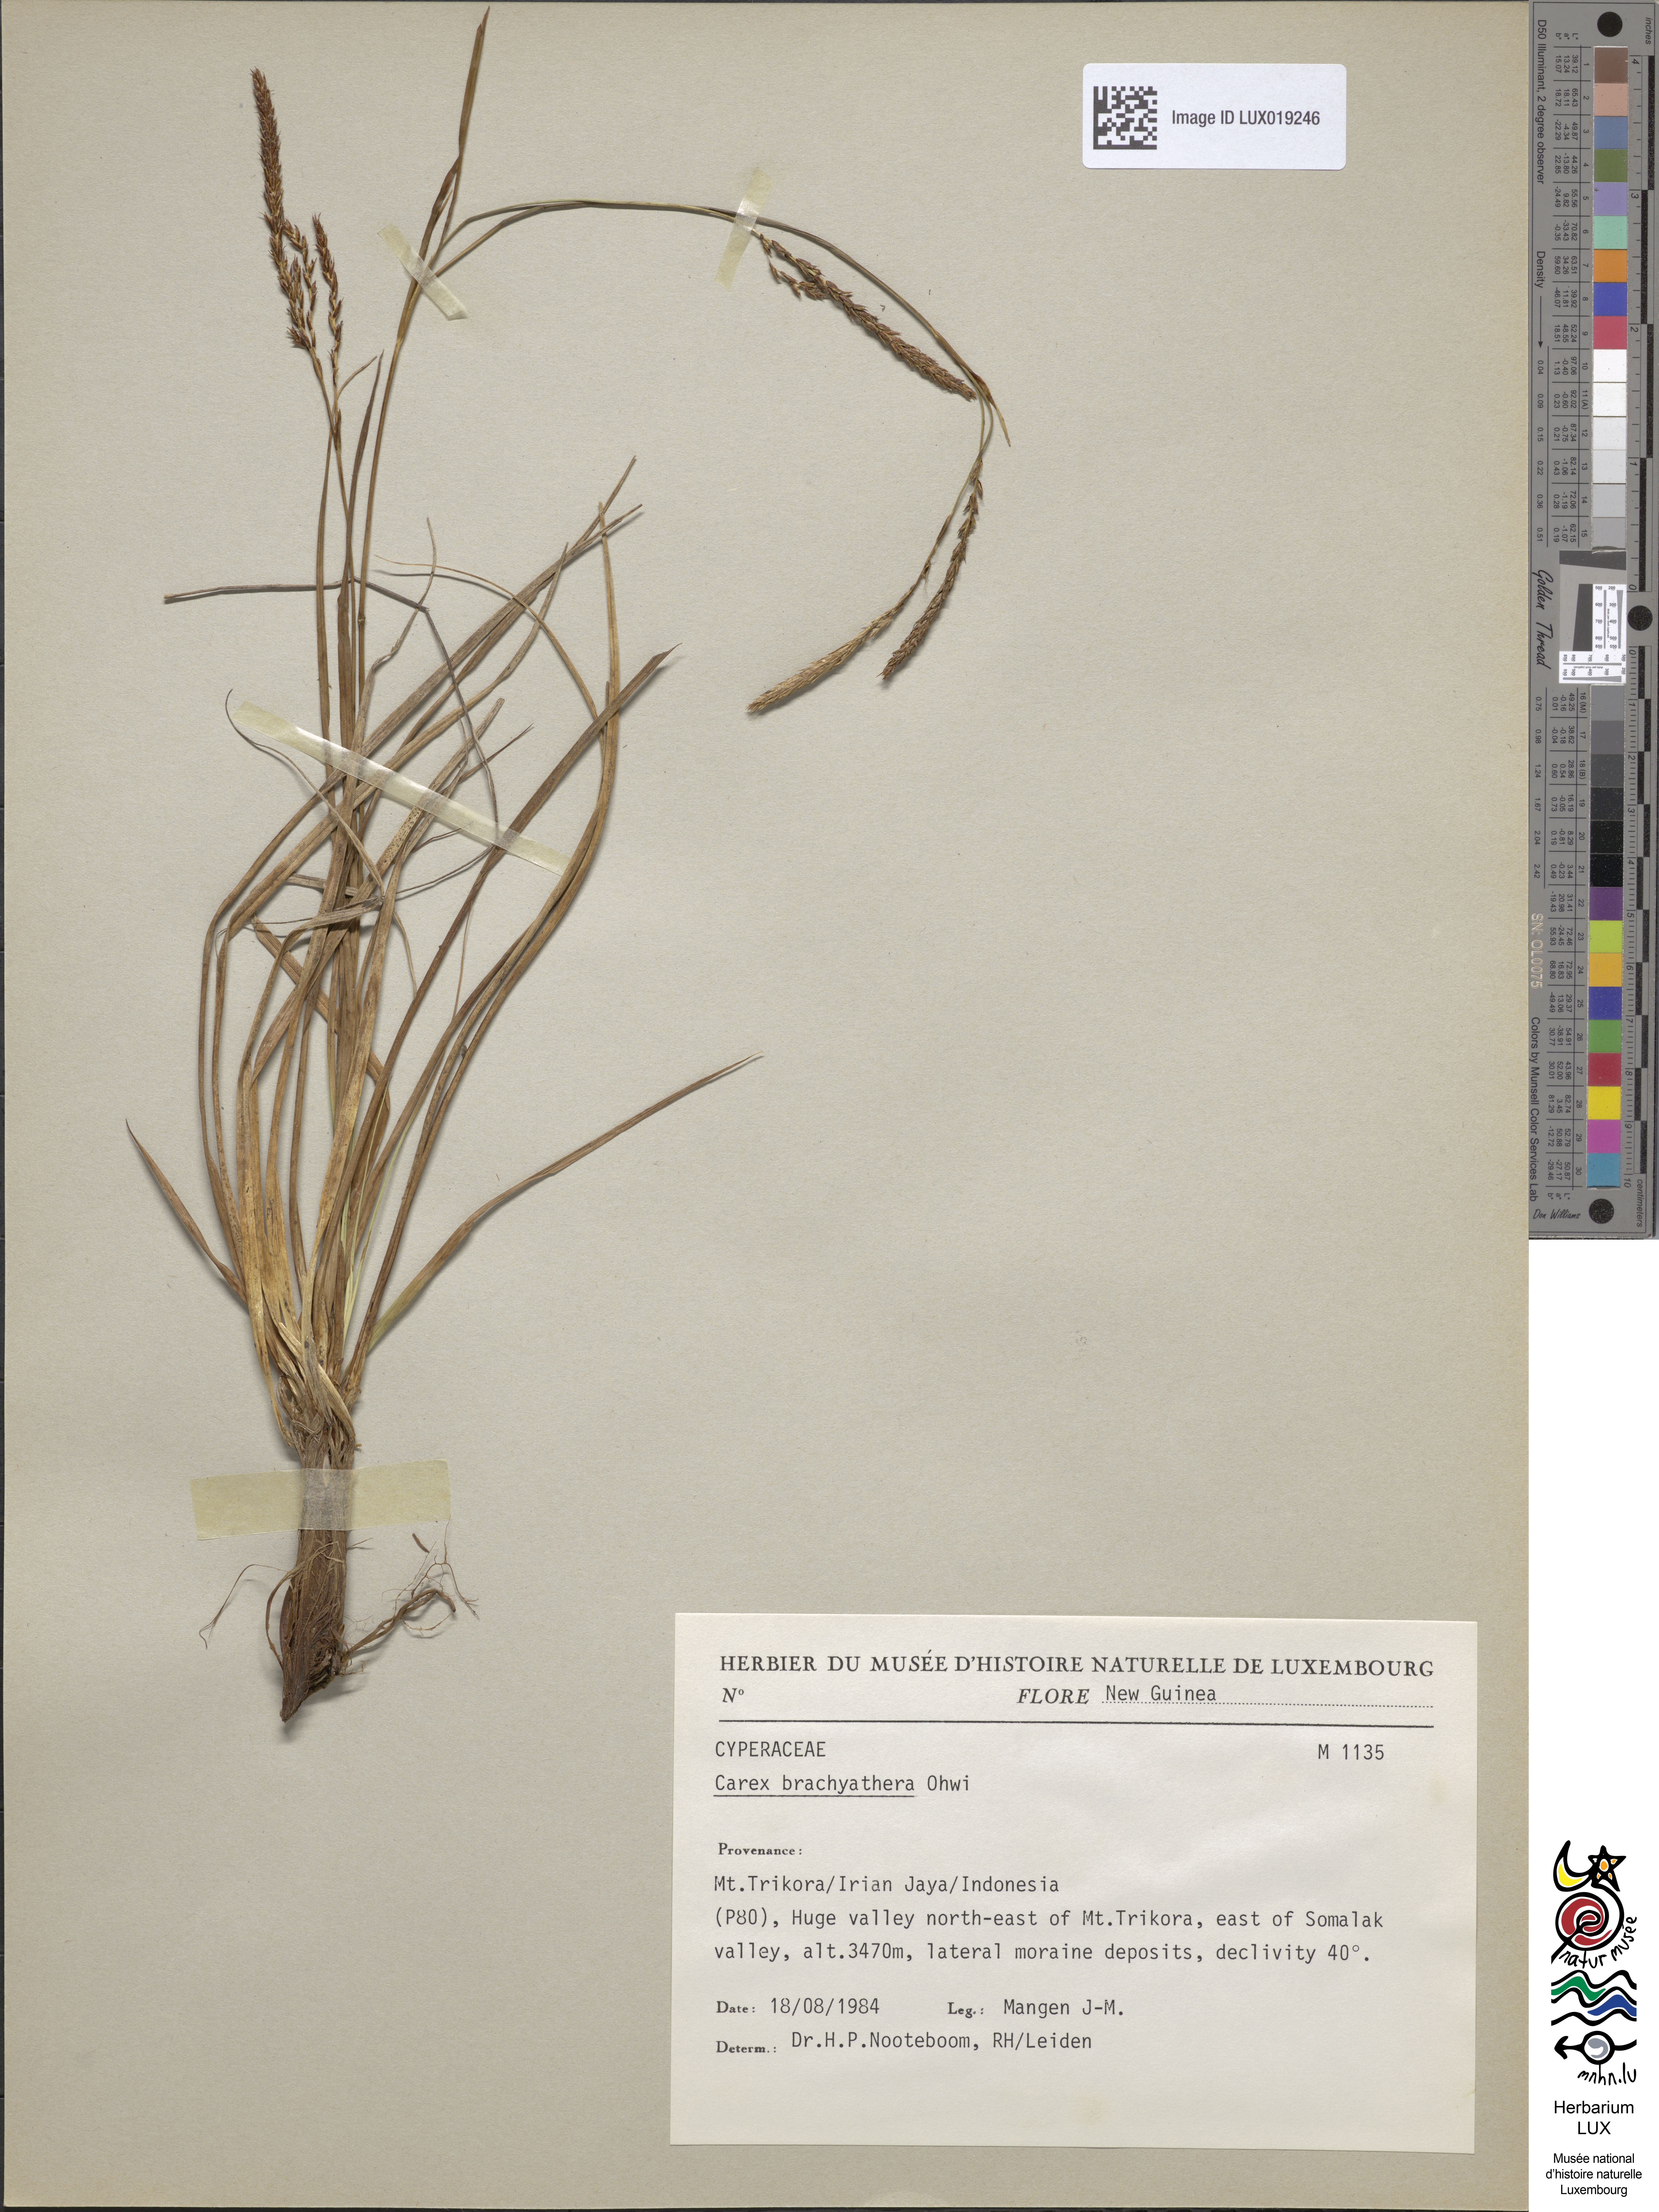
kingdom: Plantae
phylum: Tracheophyta
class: Liliopsida
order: Poales
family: Cyperaceae
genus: Carex
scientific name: Carex brachyanthera
